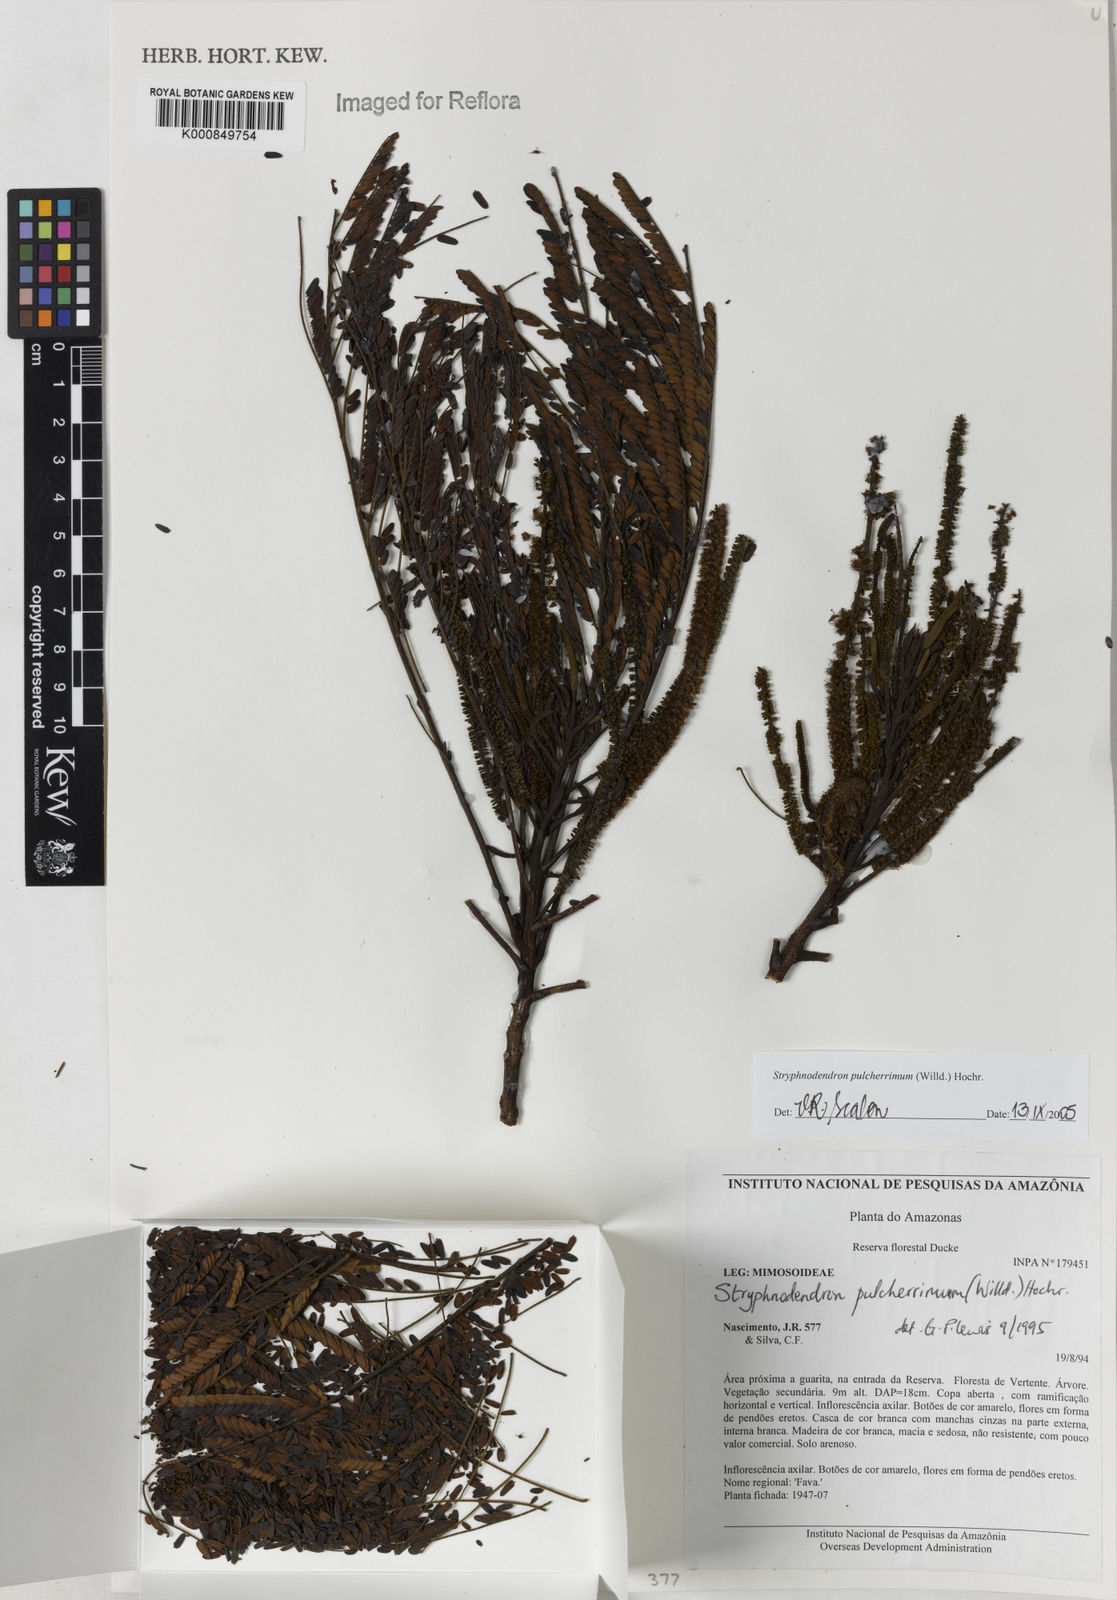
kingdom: Plantae
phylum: Tracheophyta
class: Magnoliopsida
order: Fabales
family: Fabaceae
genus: Stryphnodendron
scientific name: Stryphnodendron pulcherrimum
